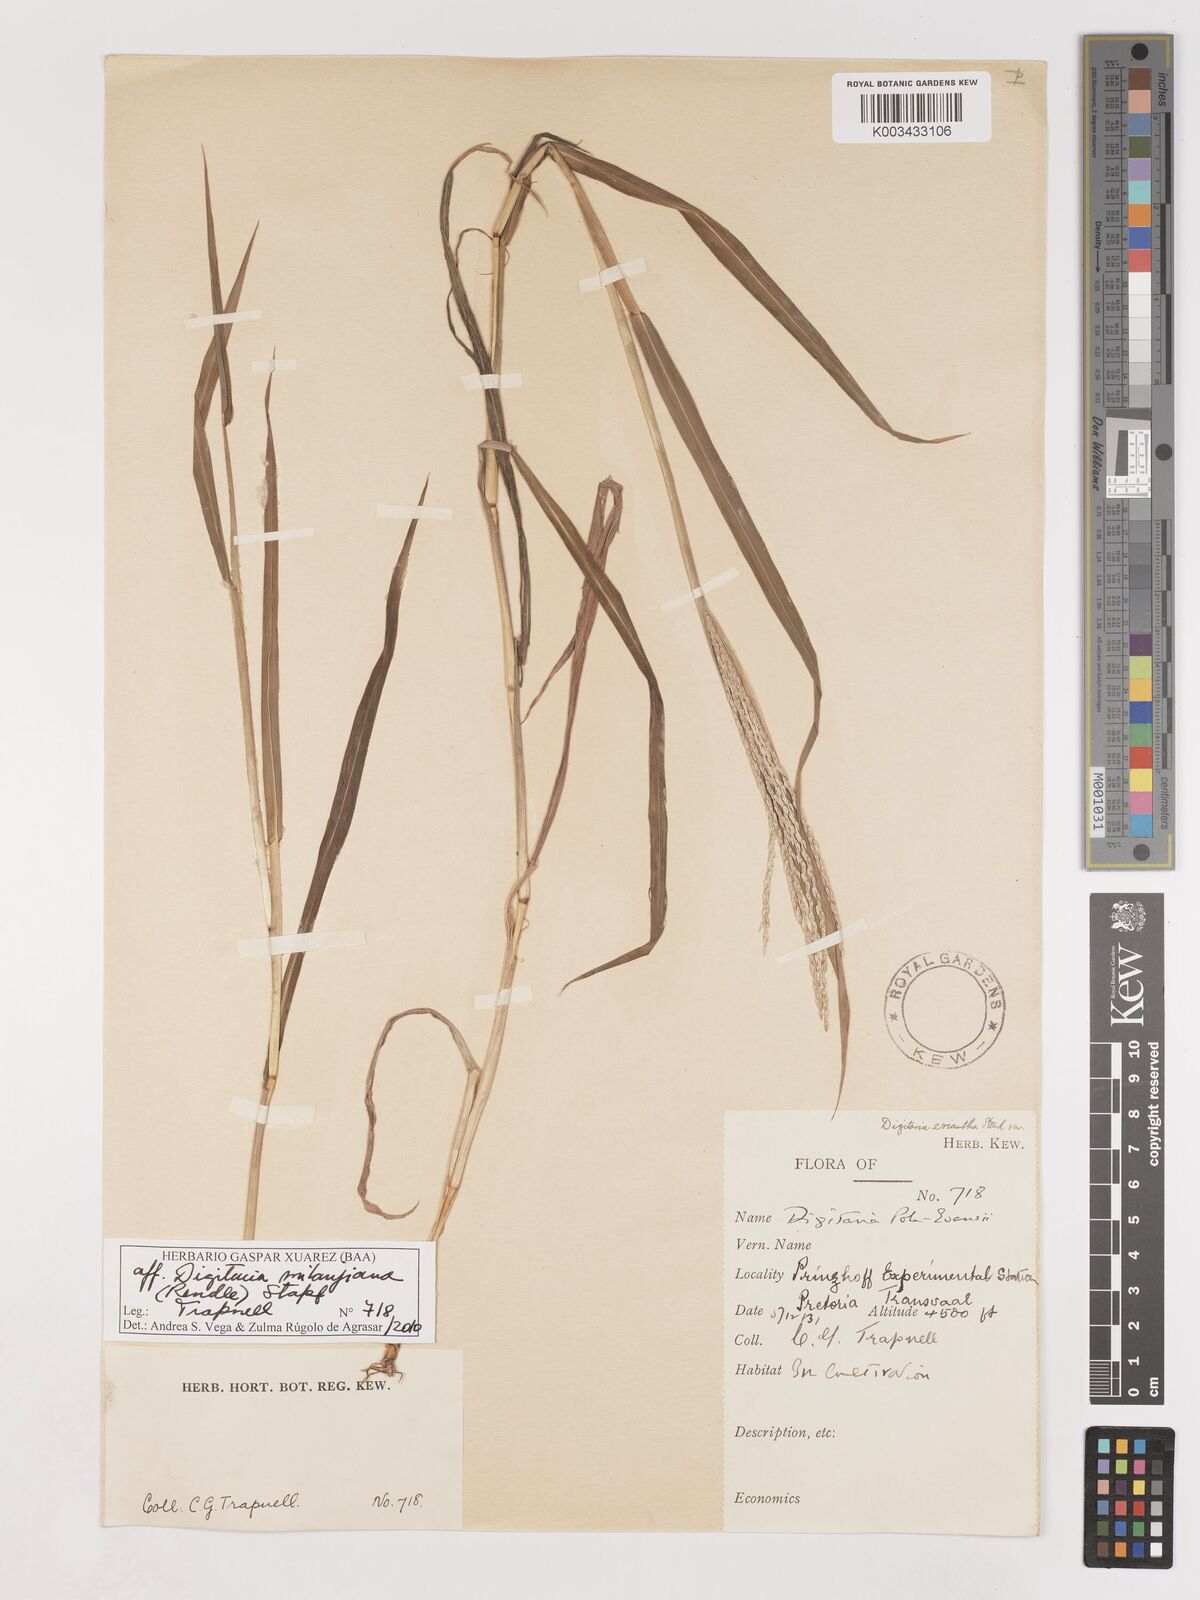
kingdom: Plantae
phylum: Tracheophyta
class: Liliopsida
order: Poales
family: Poaceae
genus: Digitaria
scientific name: Digitaria milanjiana
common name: Madagascar crabgrass
